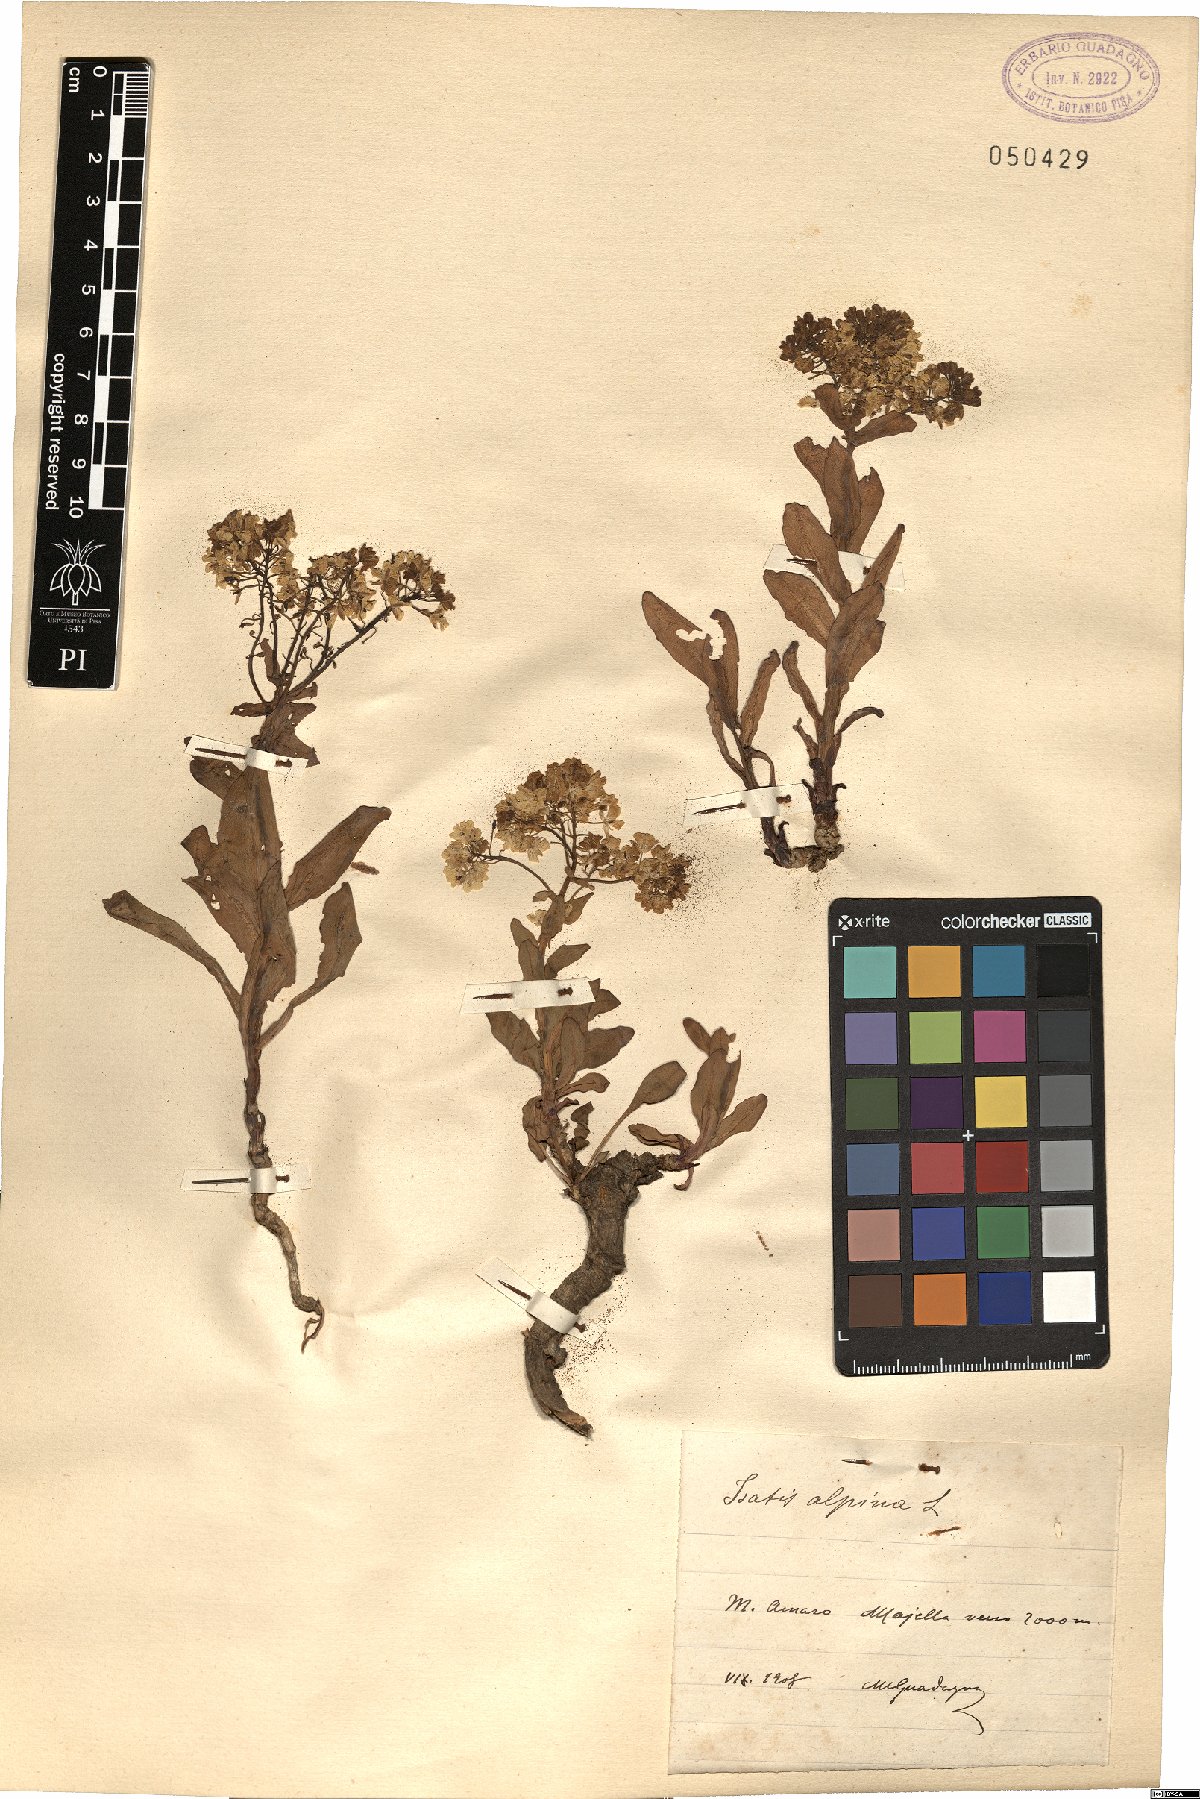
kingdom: Plantae
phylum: Tracheophyta
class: Magnoliopsida
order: Brassicales
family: Brassicaceae
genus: Isatis
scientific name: Isatis tinctoria
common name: Woad
